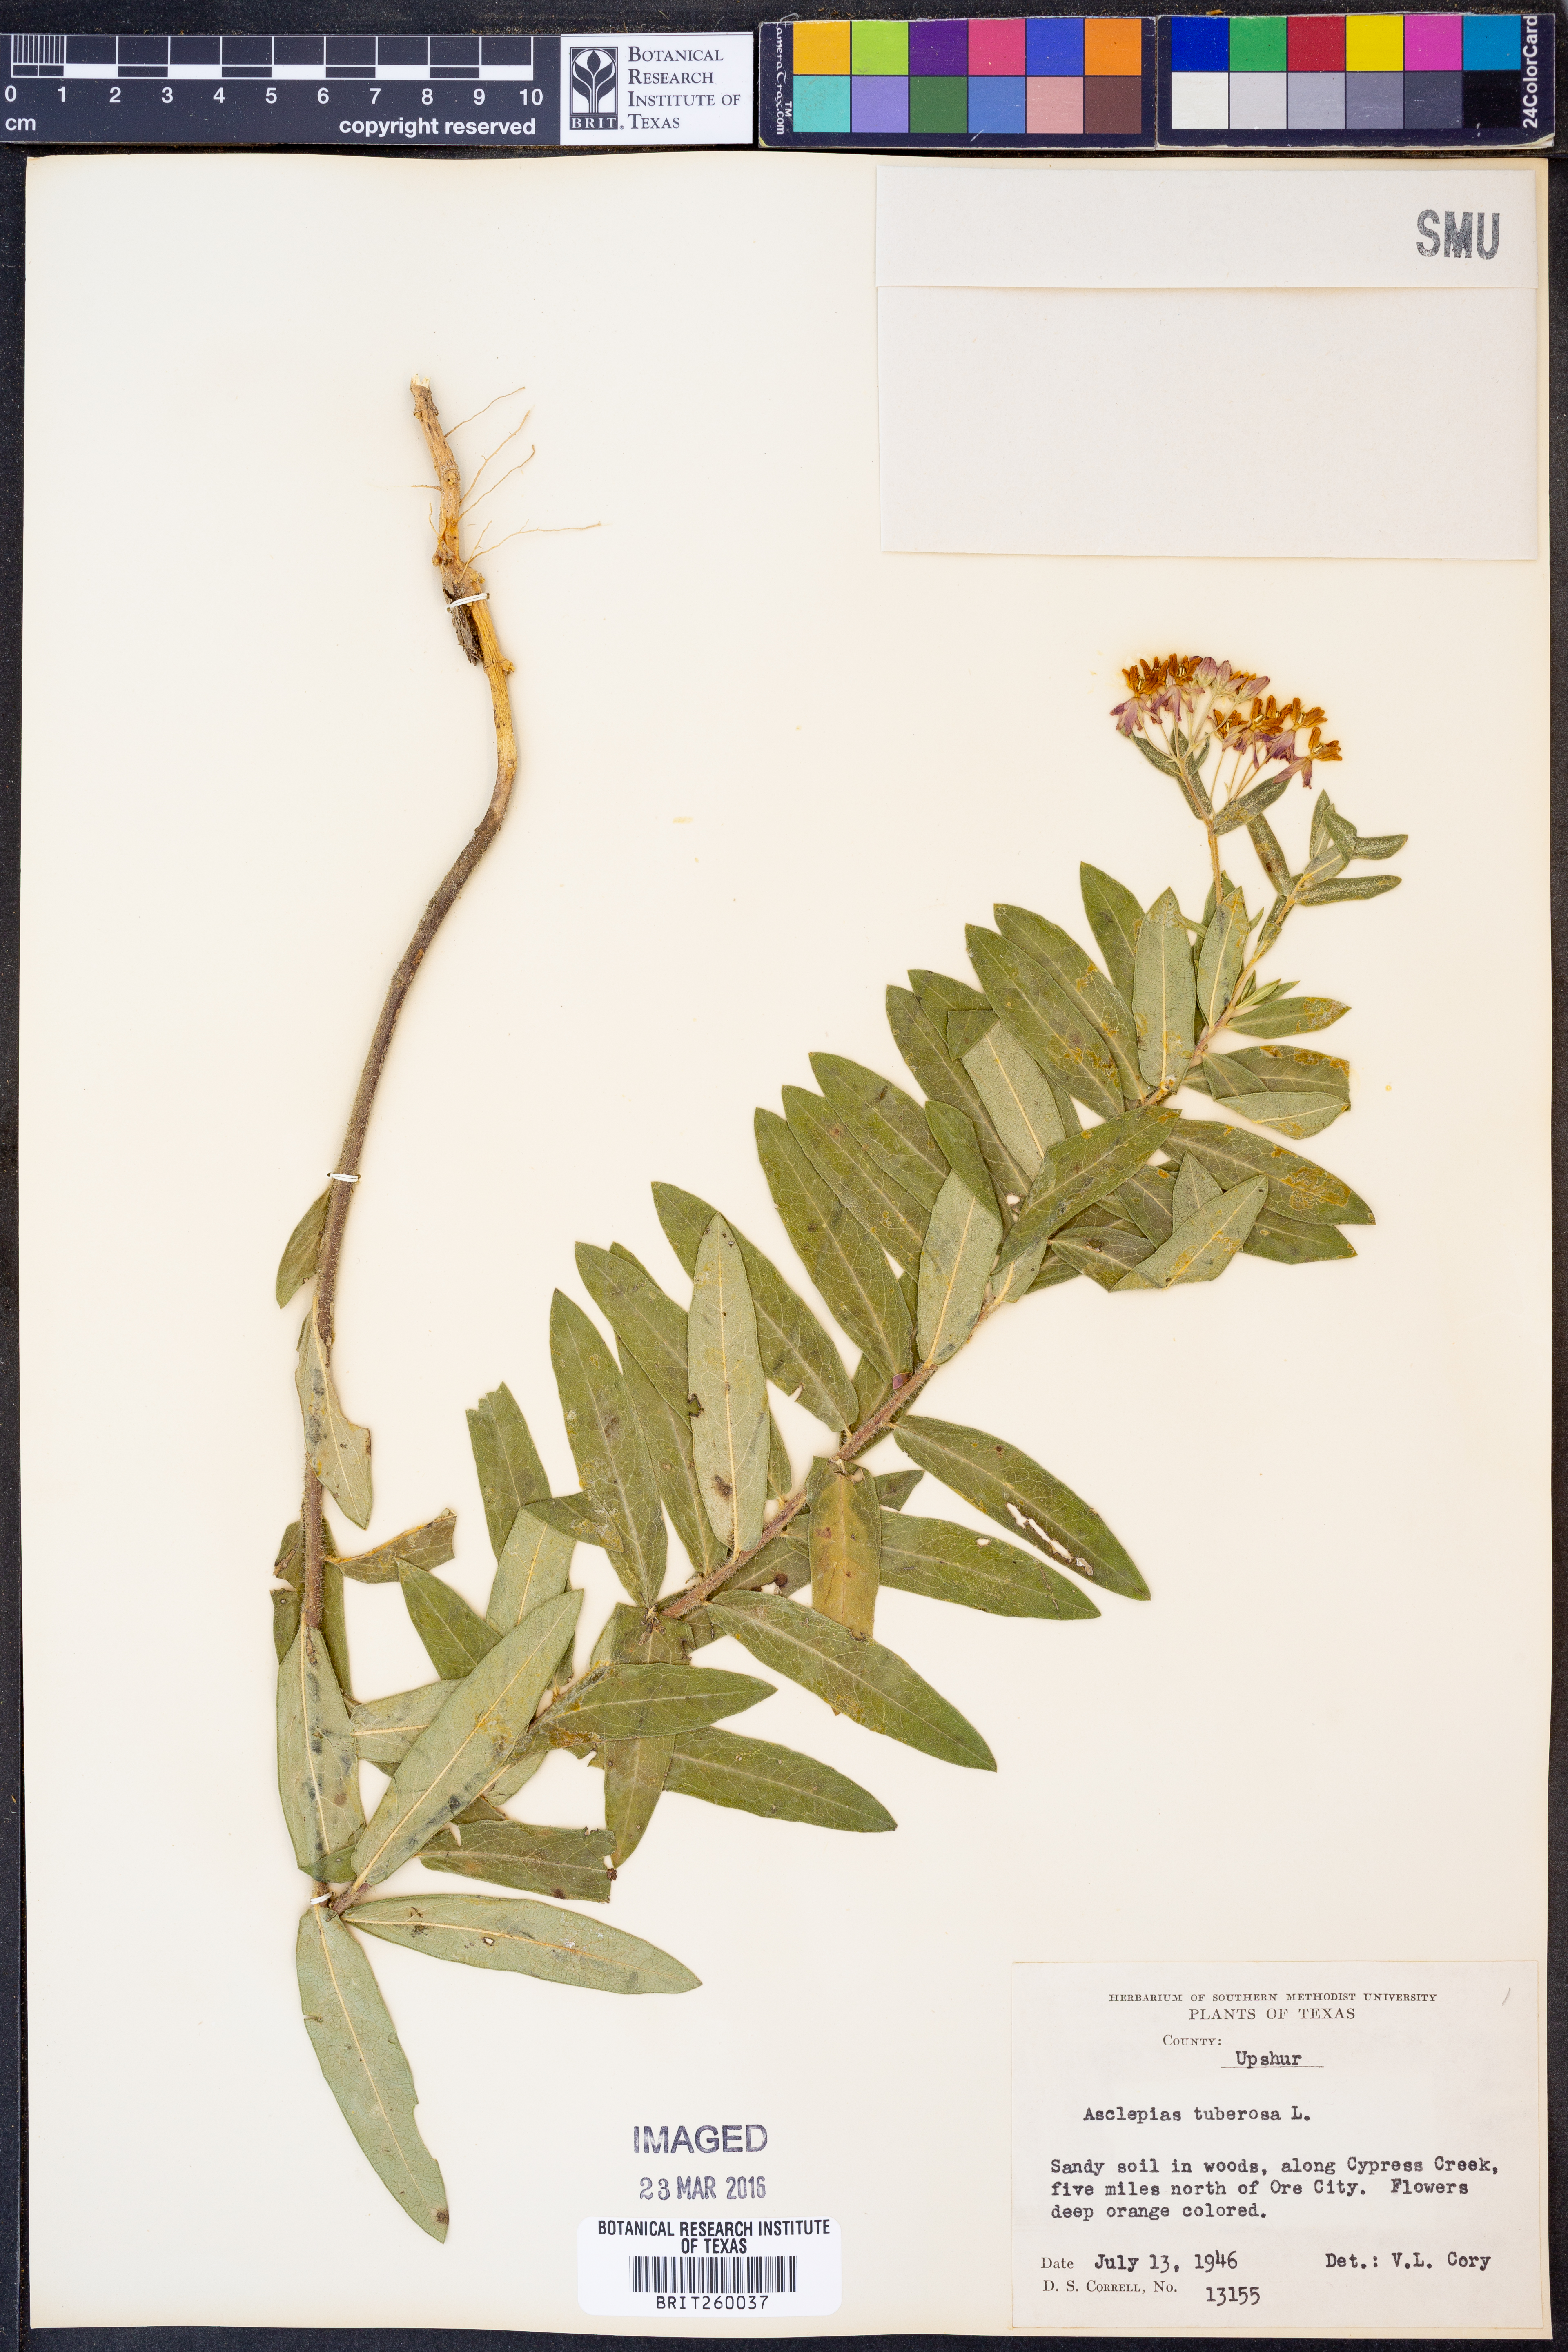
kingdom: Plantae
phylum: Tracheophyta
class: Magnoliopsida
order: Gentianales
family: Apocynaceae
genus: Asclepias
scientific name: Asclepias tuberosa
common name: Butterfly milkweed
